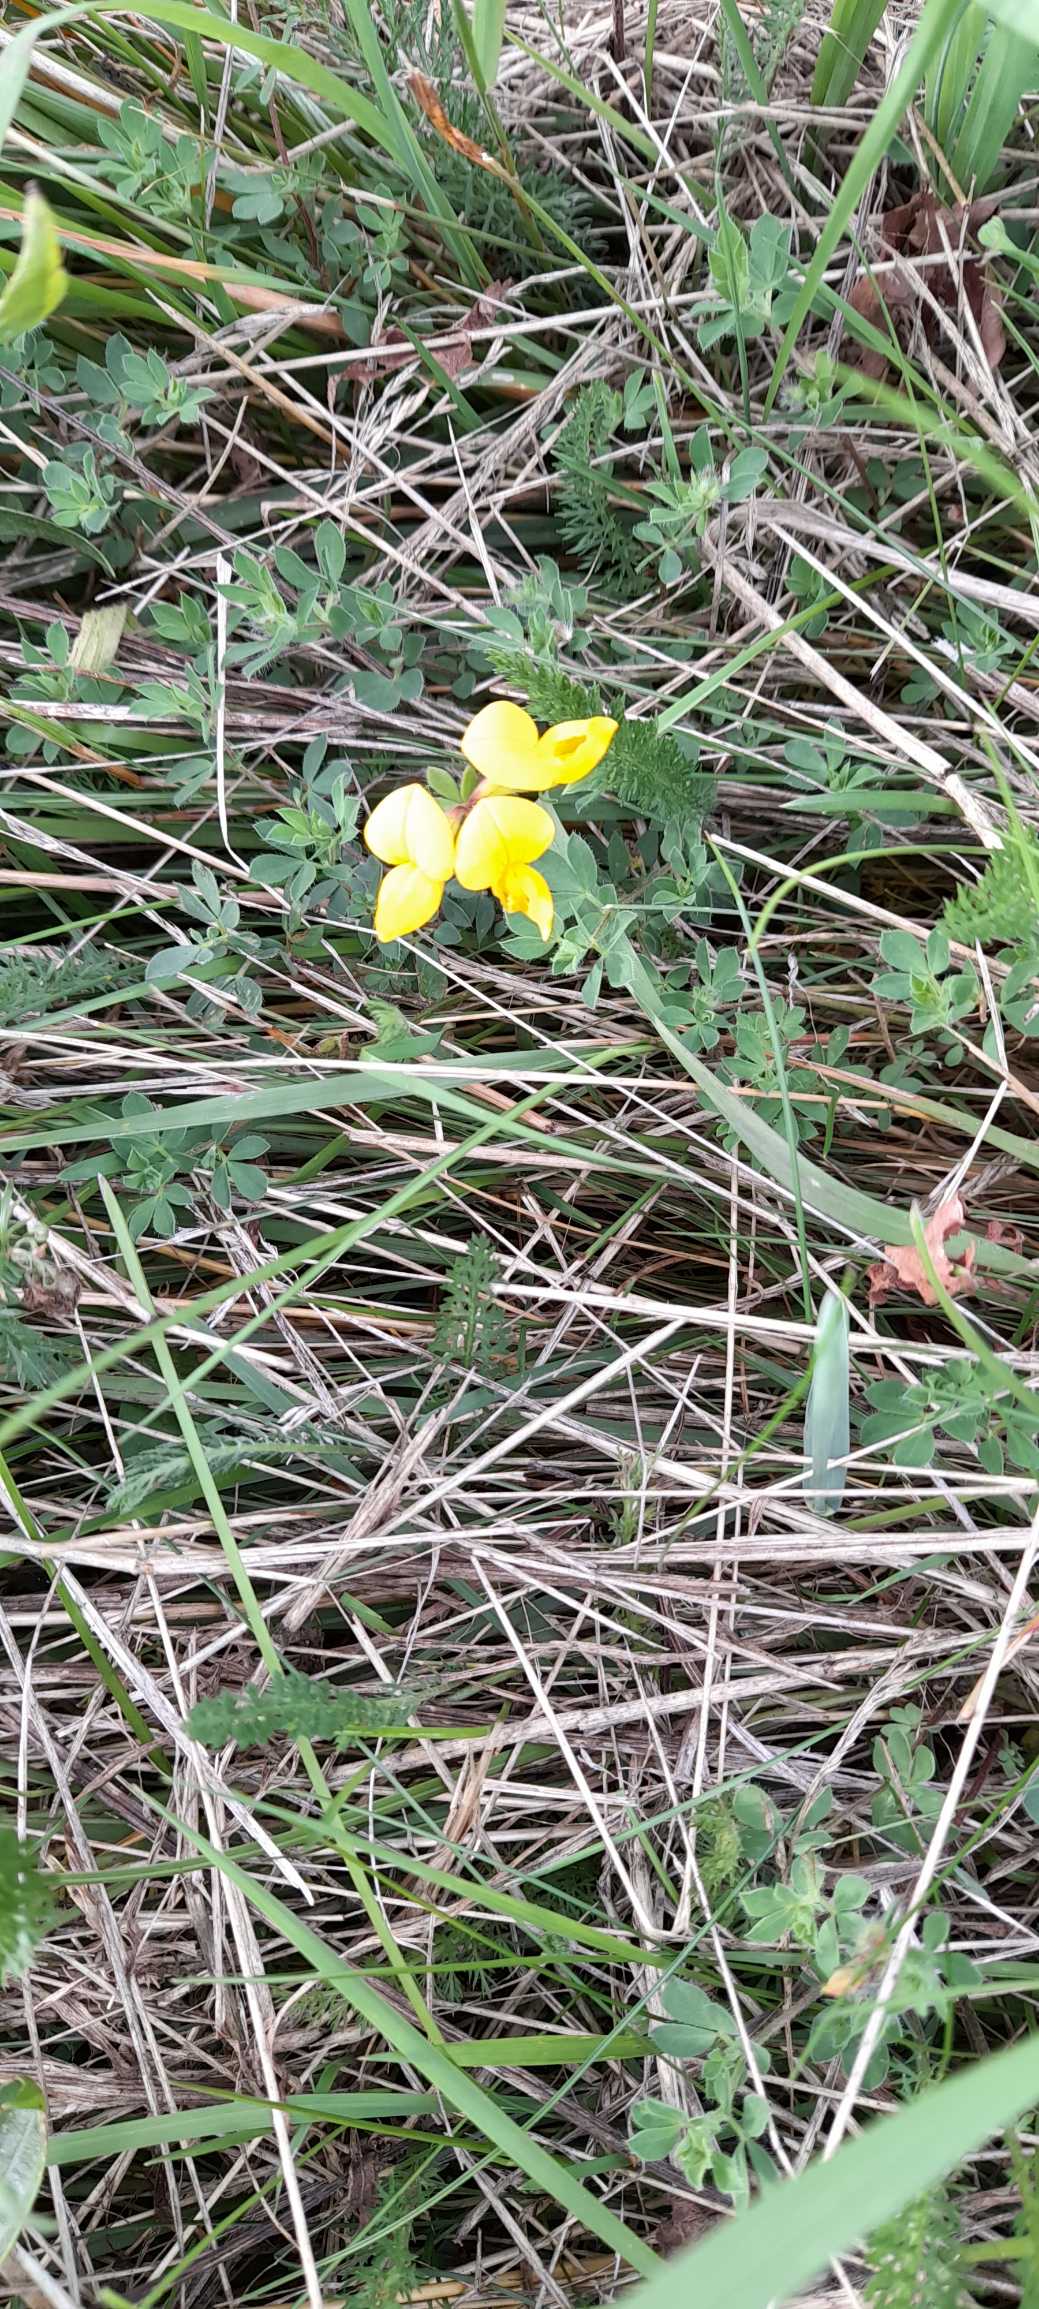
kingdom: Plantae
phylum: Tracheophyta
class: Magnoliopsida
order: Fabales
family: Fabaceae
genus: Lotus
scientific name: Lotus corniculatus
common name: Almindelig kællingetand
